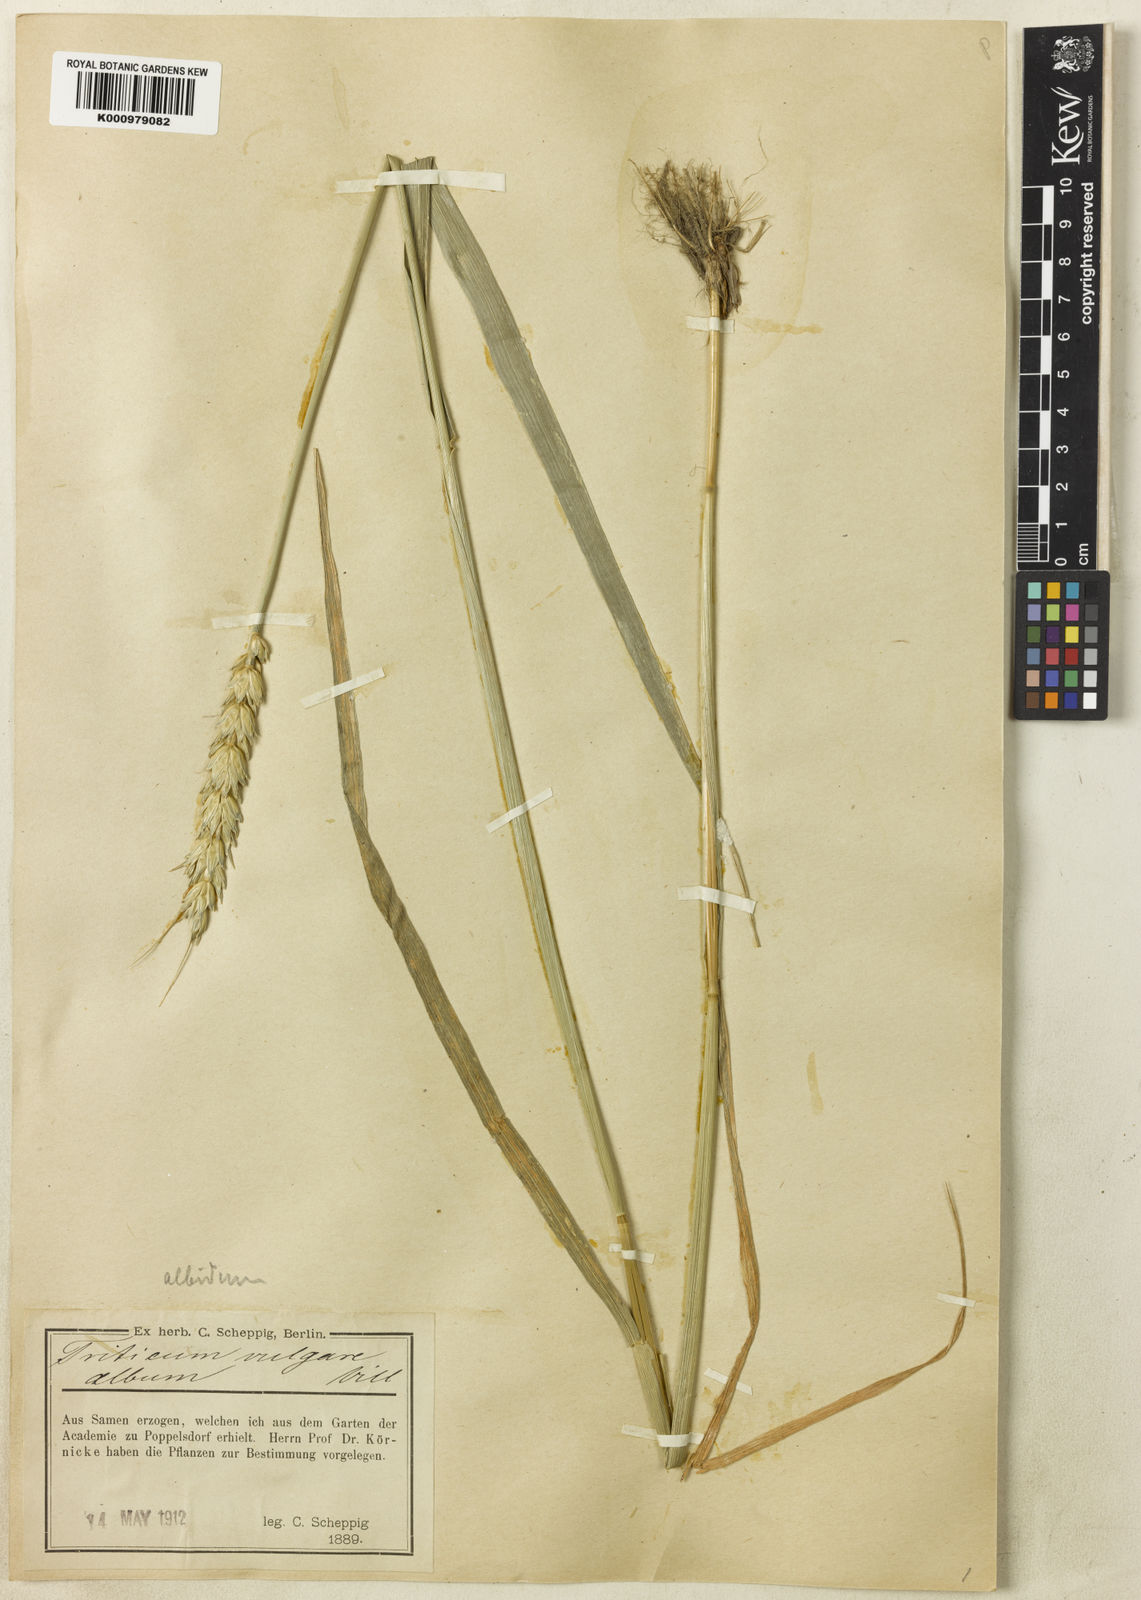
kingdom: Plantae
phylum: Tracheophyta
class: Liliopsida
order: Poales
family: Poaceae
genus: Triticum
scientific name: Triticum aestivum
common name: Common wheat
